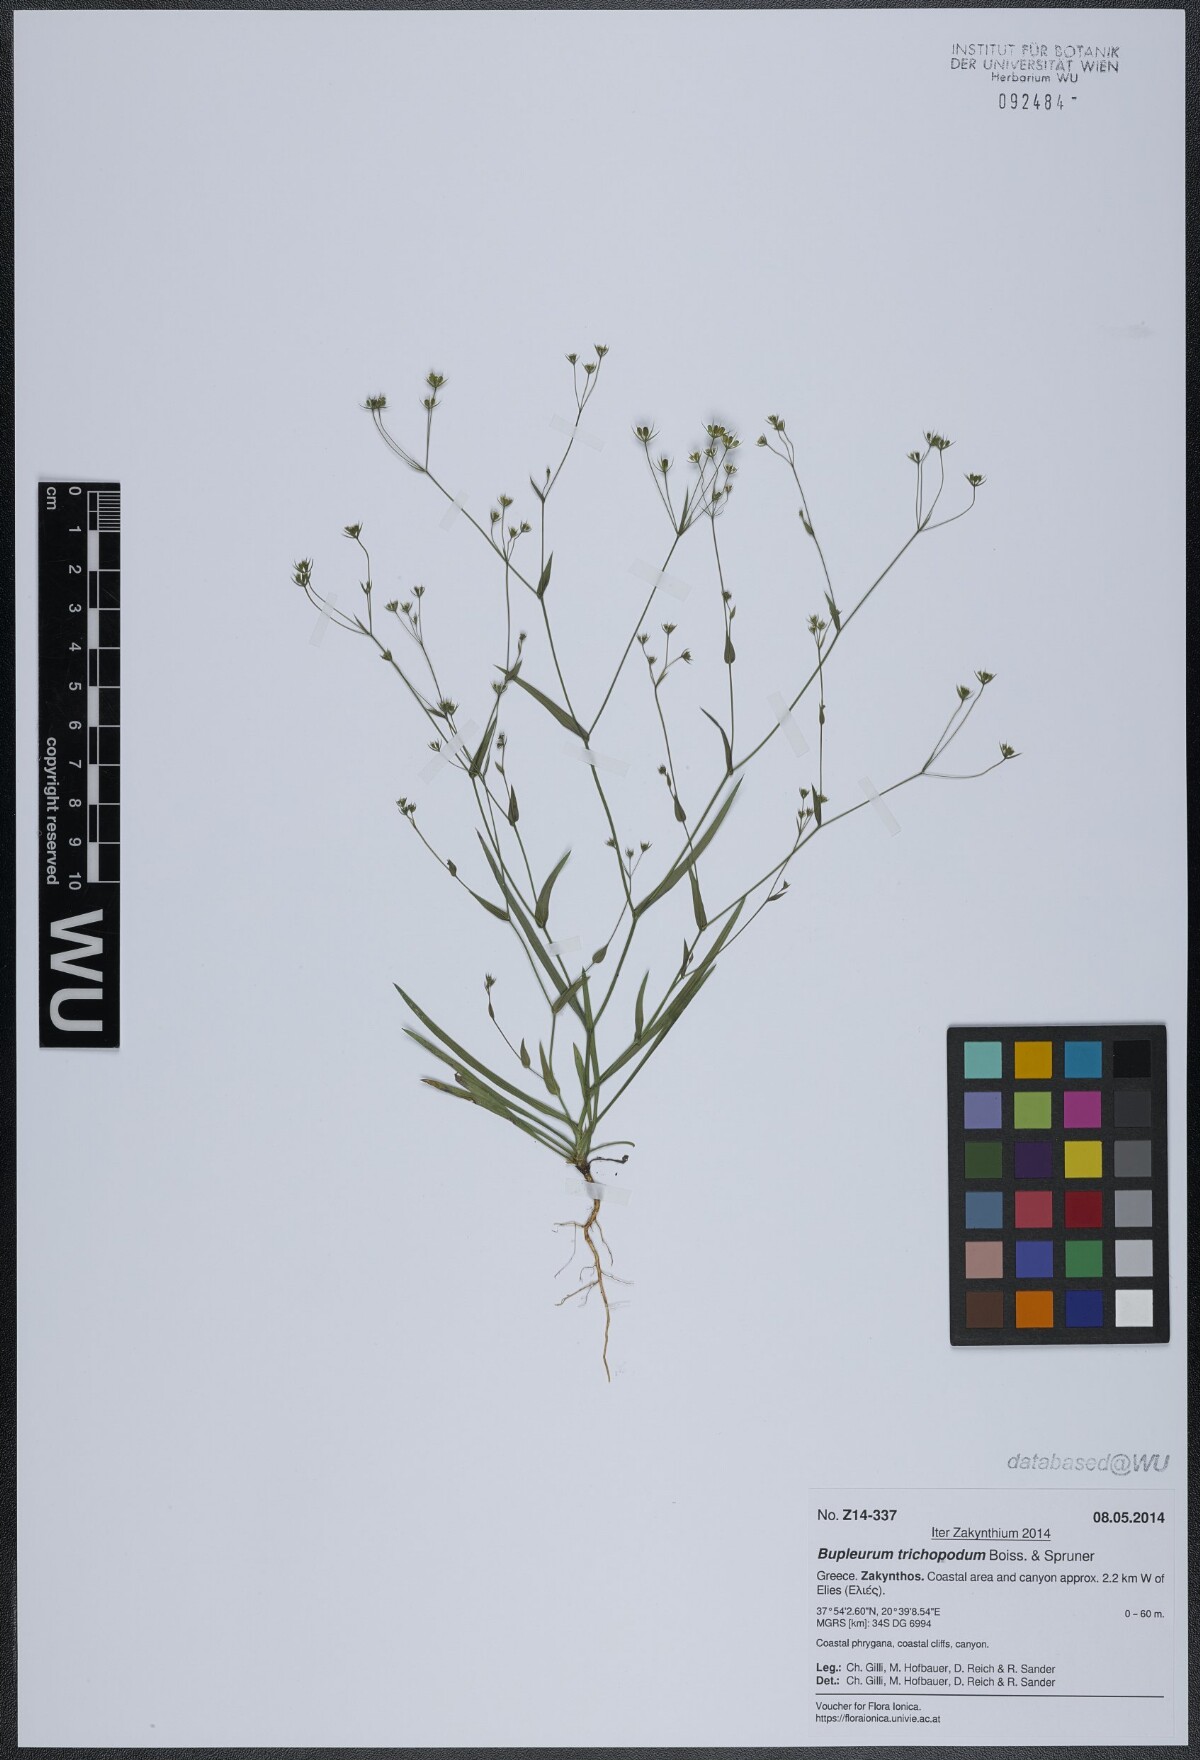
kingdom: Plantae
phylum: Tracheophyta
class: Magnoliopsida
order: Apiales
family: Apiaceae
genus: Bupleurum
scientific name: Bupleurum trichopodum
